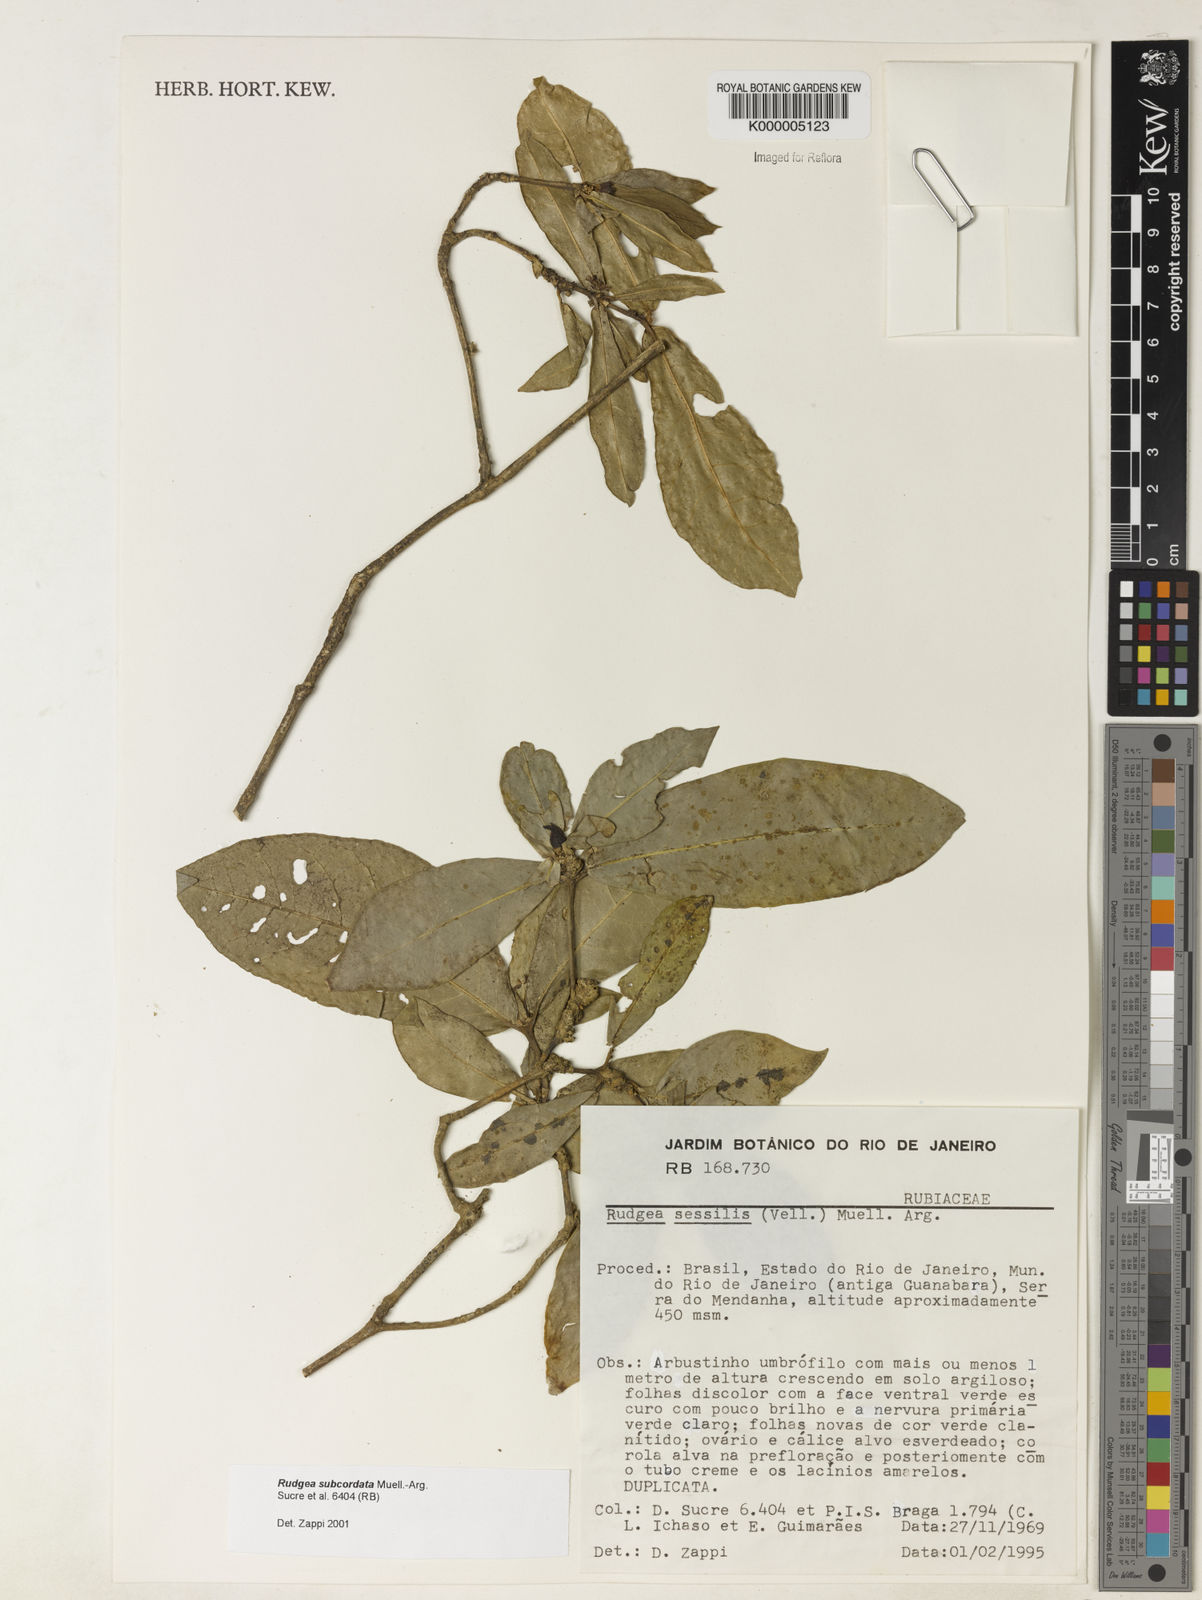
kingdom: Plantae
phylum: Tracheophyta
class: Magnoliopsida
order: Gentianales
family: Rubiaceae
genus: Rudgea
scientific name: Rudgea subcordata
